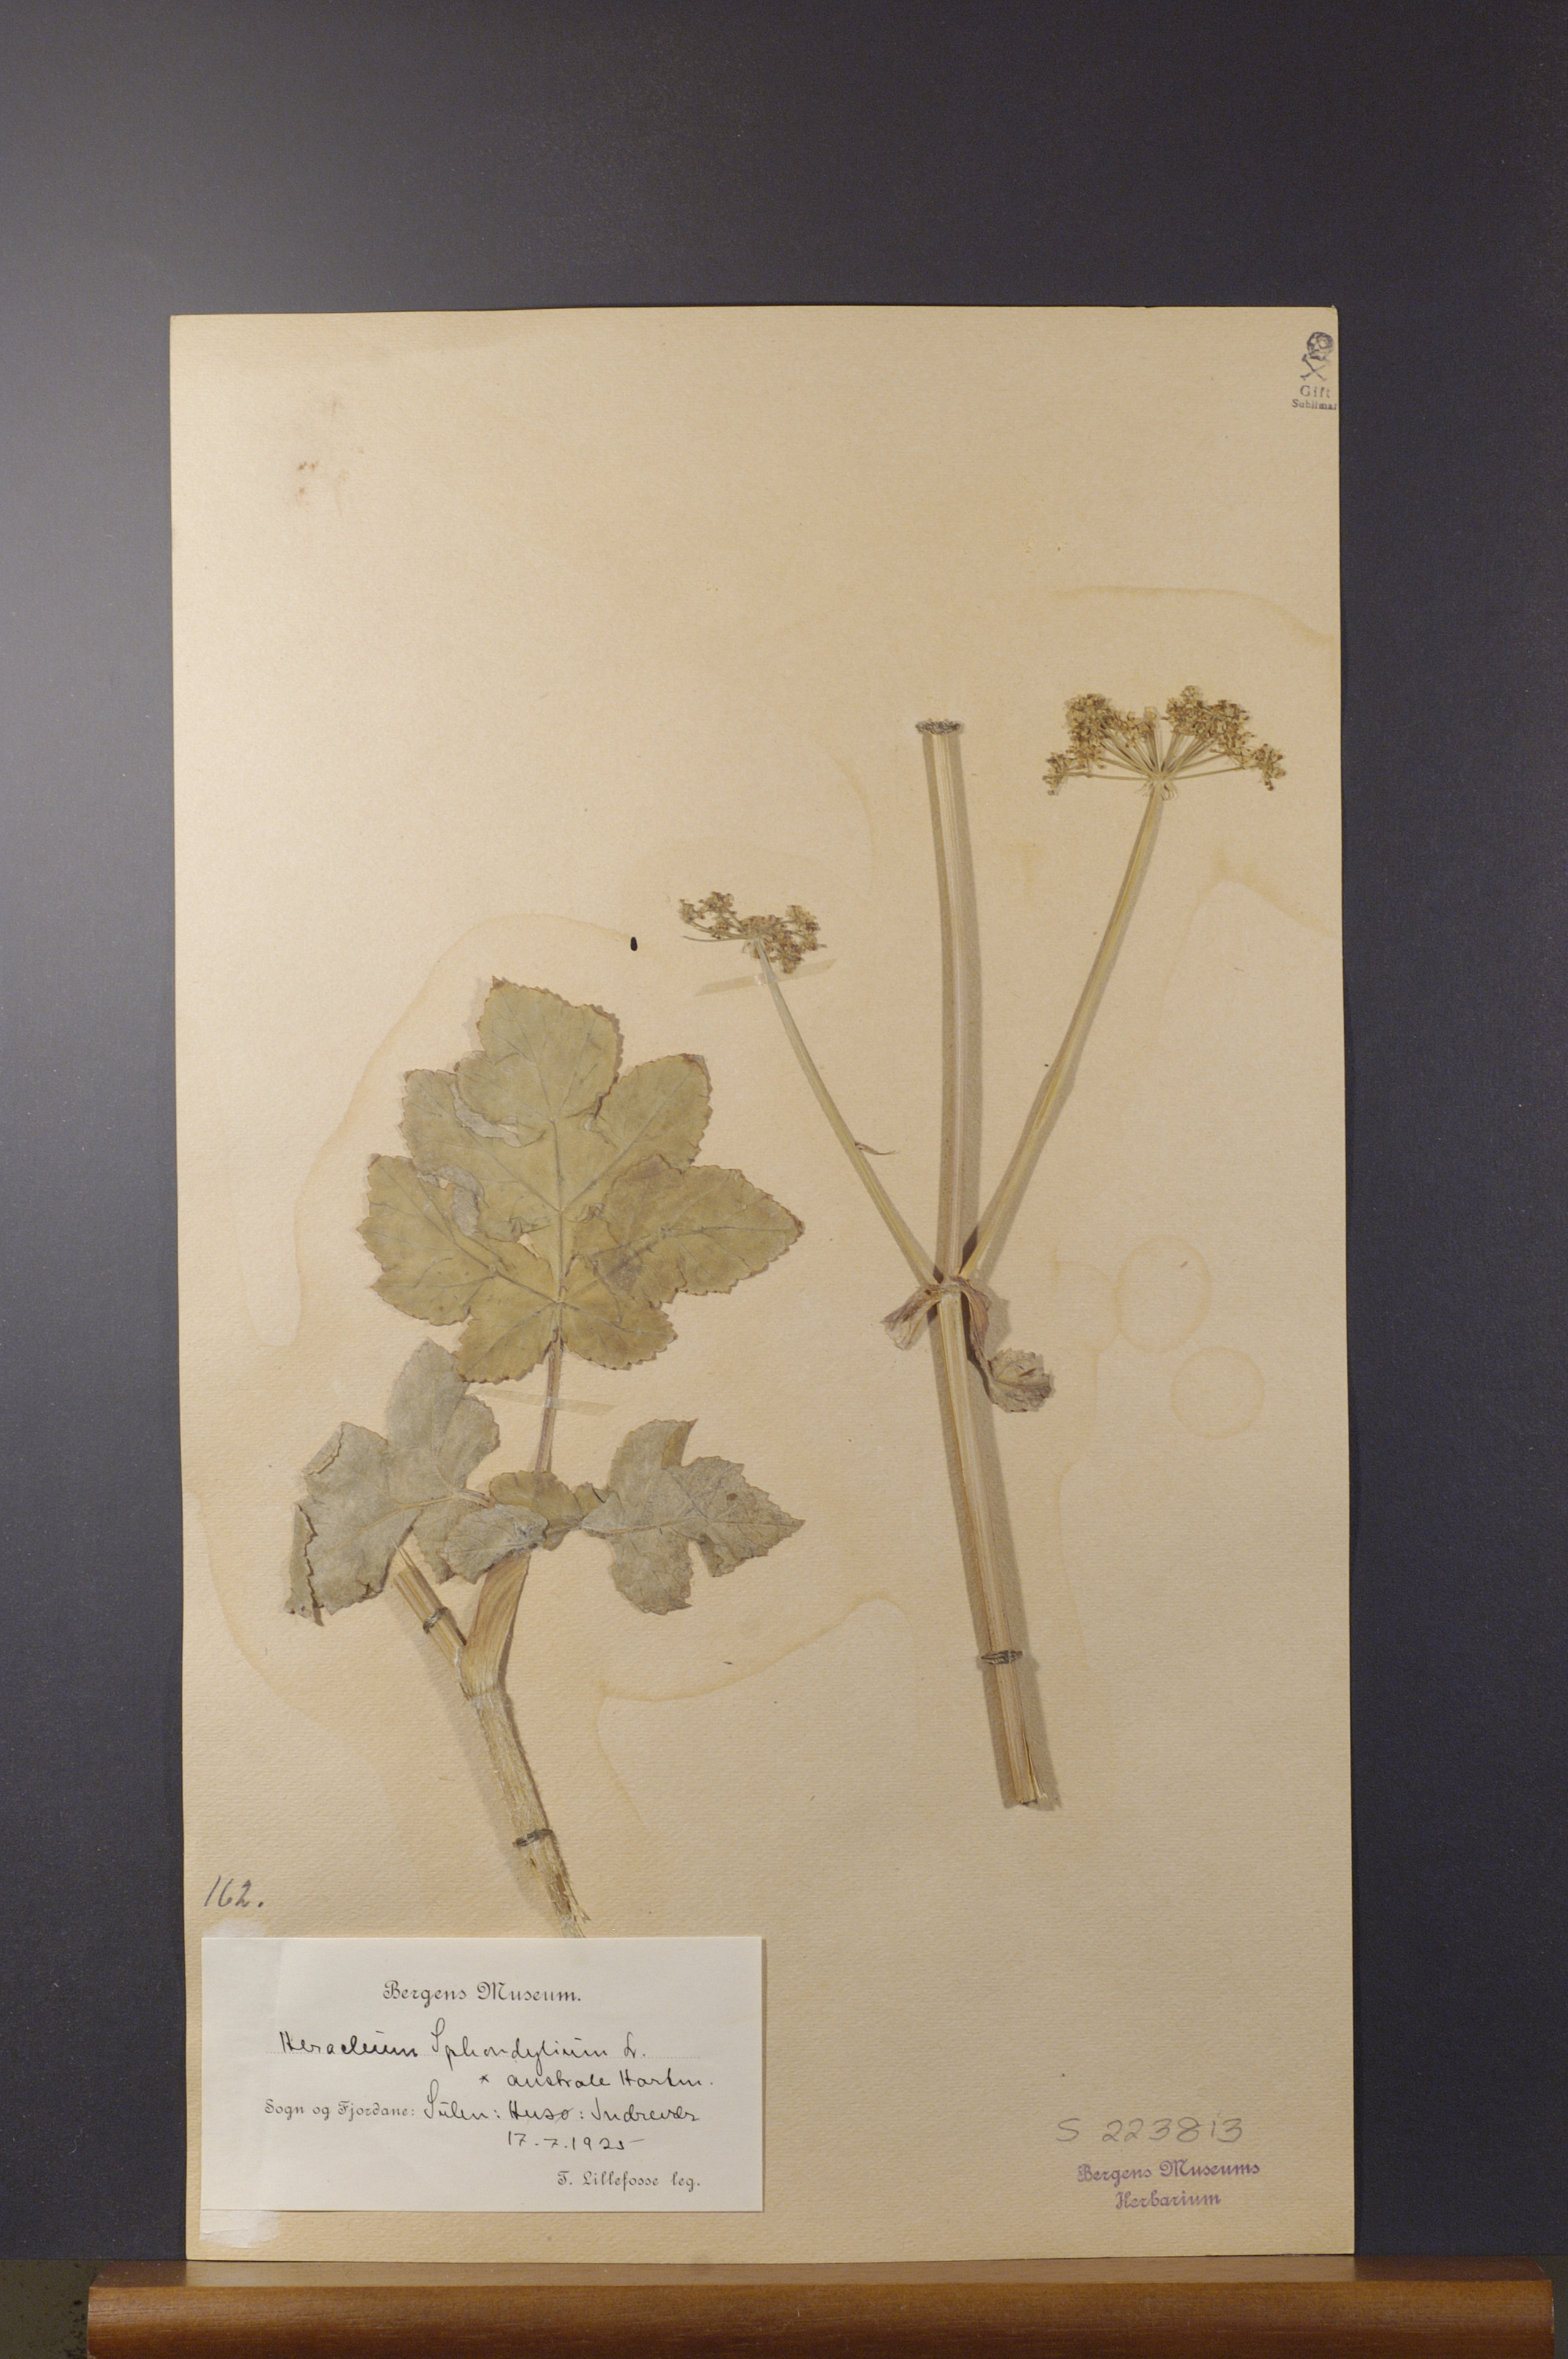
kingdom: Plantae
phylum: Tracheophyta
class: Magnoliopsida
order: Apiales
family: Apiaceae
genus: Heracleum
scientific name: Heracleum sphondylium
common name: Hogweed
